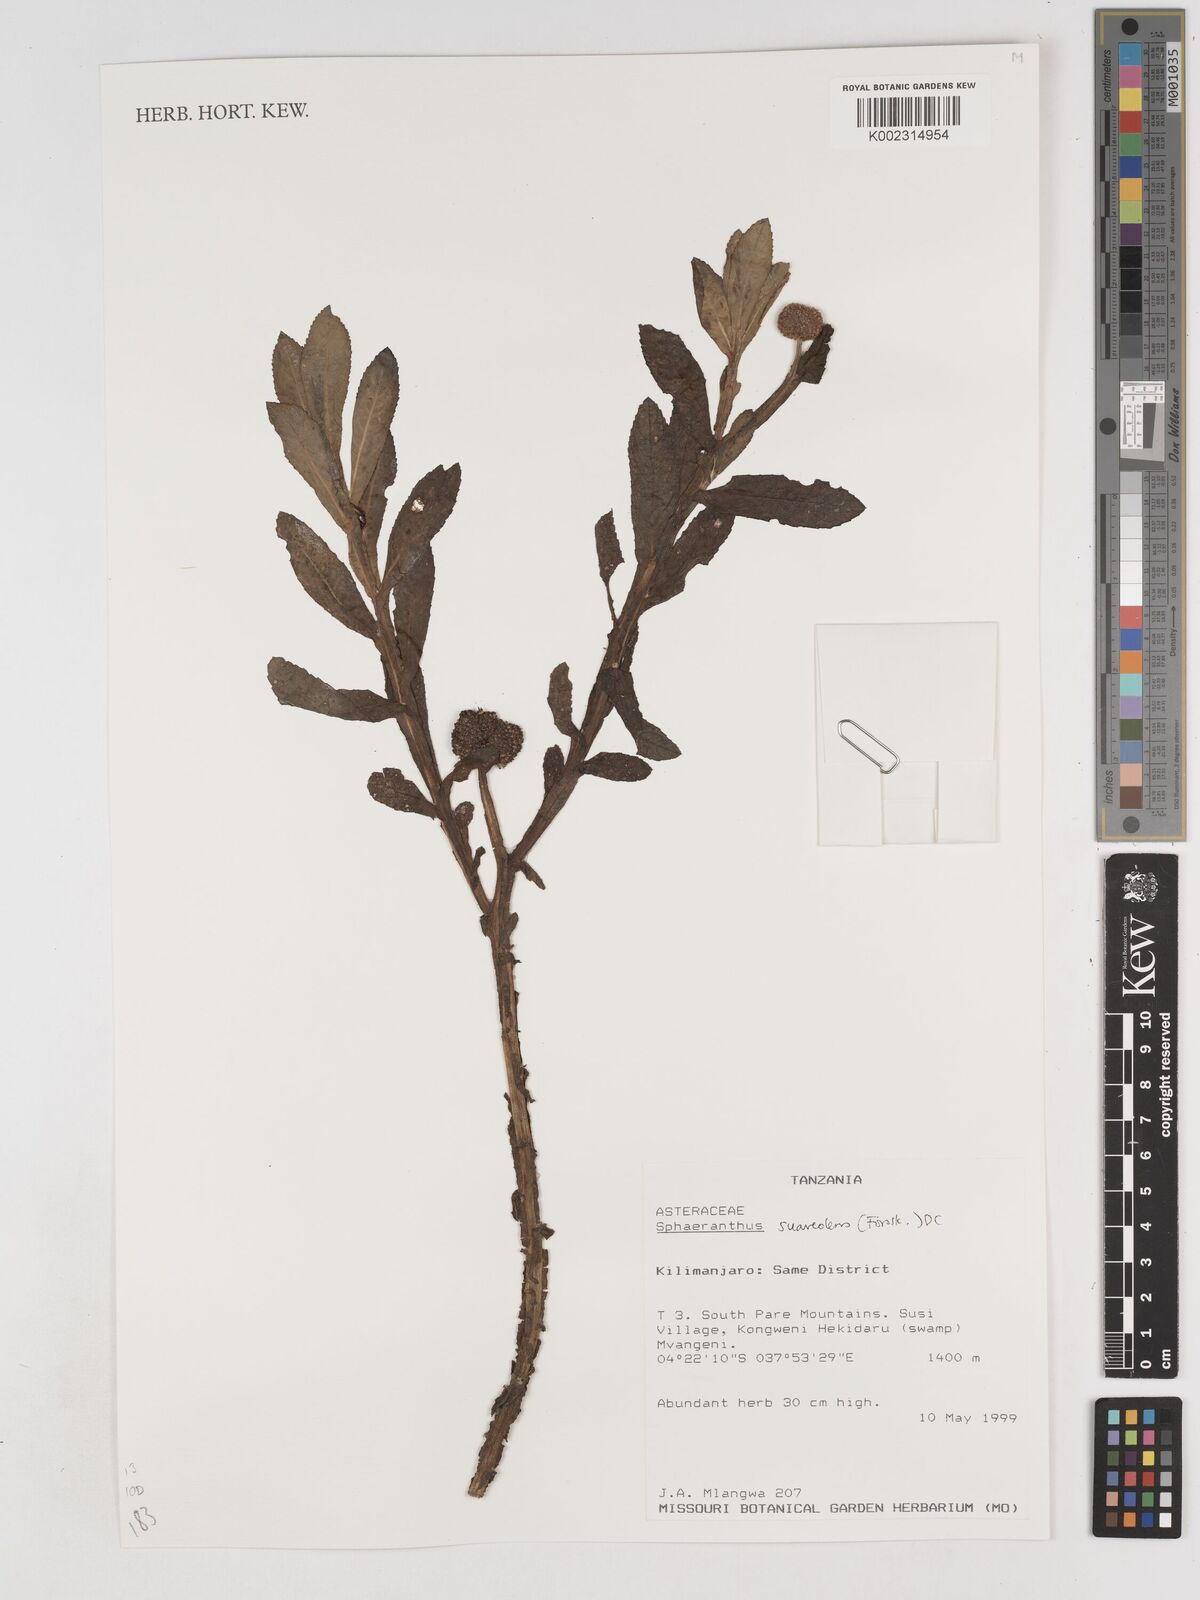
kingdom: Plantae
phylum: Tracheophyta
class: Magnoliopsida
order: Asterales
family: Asteraceae
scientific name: Asteraceae
